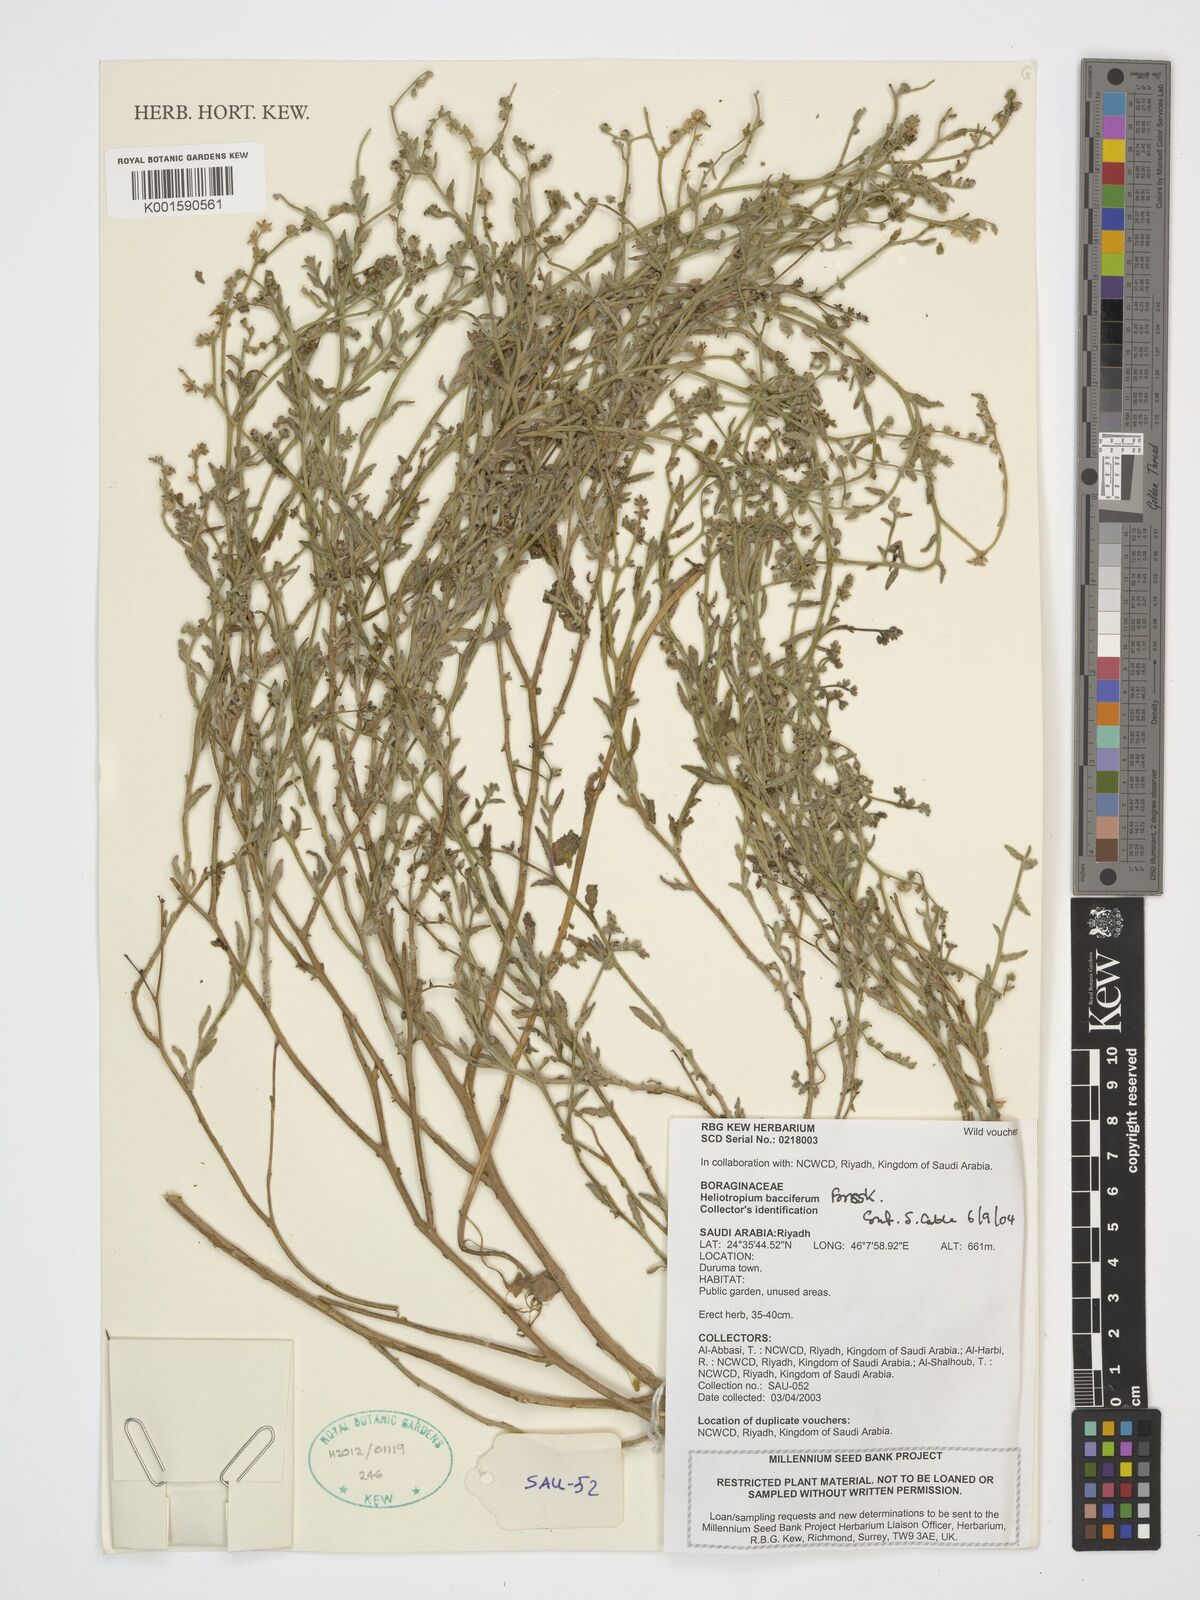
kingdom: Plantae
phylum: Tracheophyta
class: Magnoliopsida
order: Boraginales
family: Heliotropiaceae
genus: Heliotropium
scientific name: Heliotropium bacciferum
